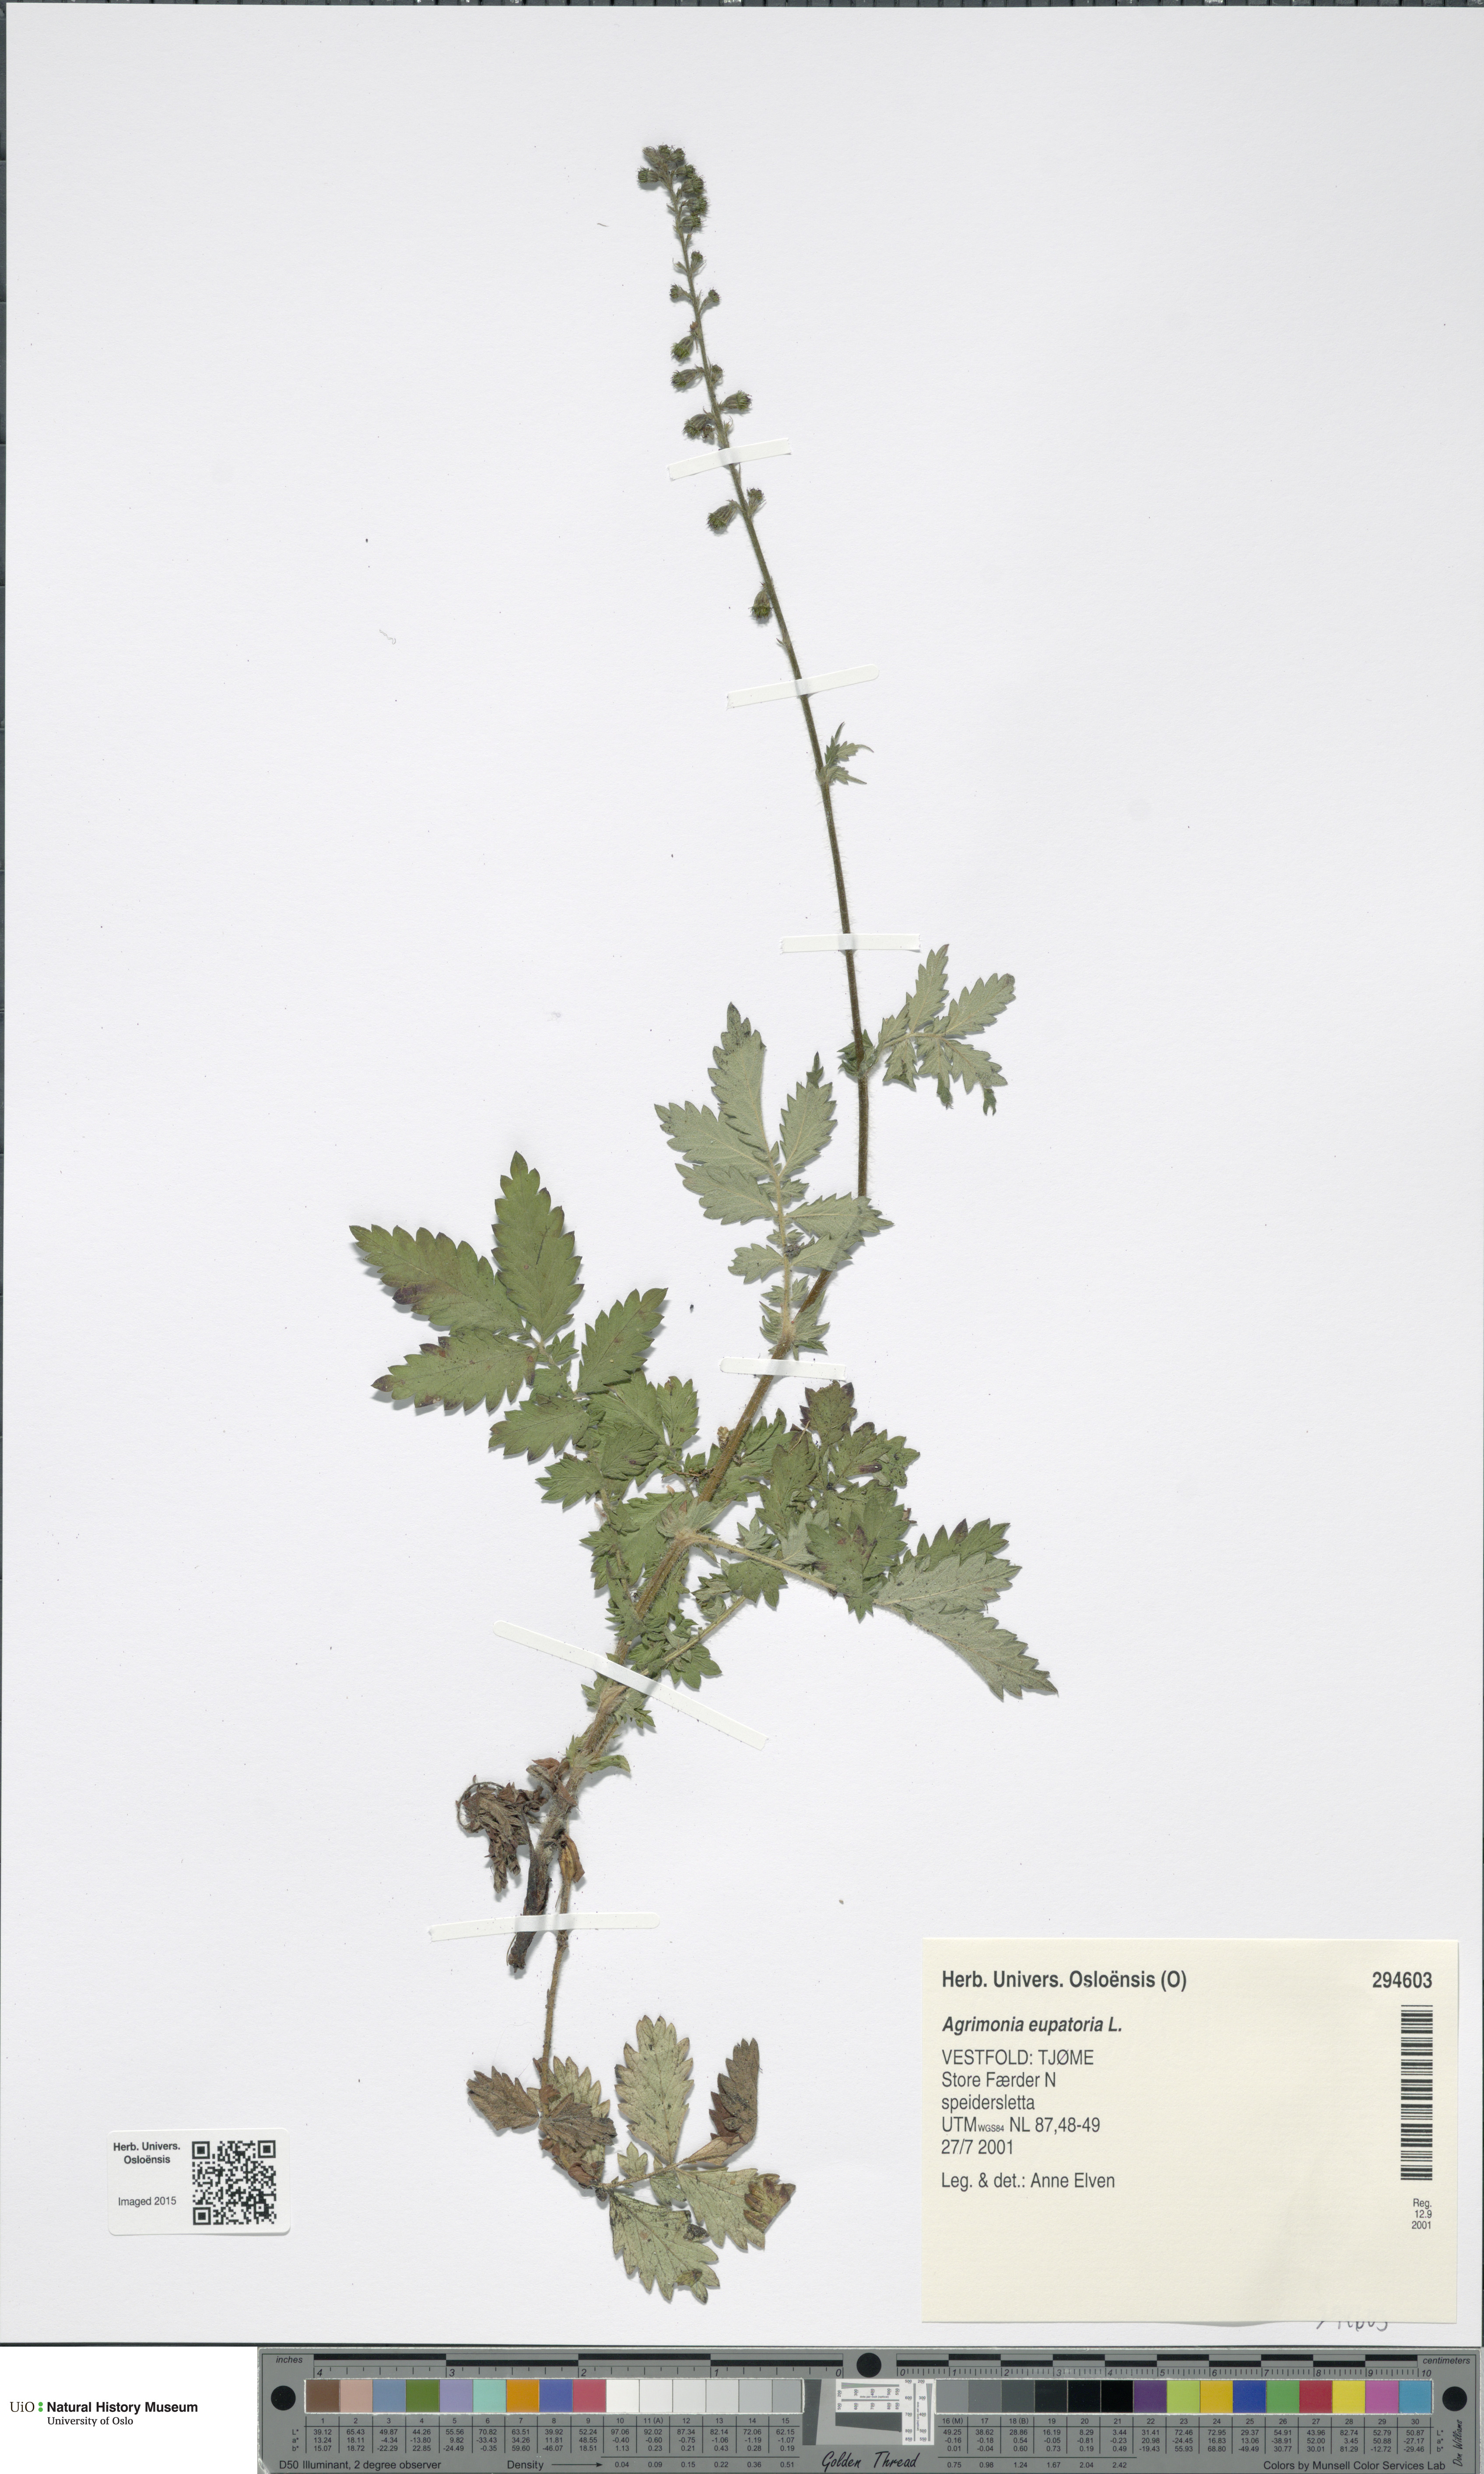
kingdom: Plantae
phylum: Tracheophyta
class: Magnoliopsida
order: Rosales
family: Rosaceae
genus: Agrimonia
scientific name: Agrimonia eupatoria
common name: Agrimony
